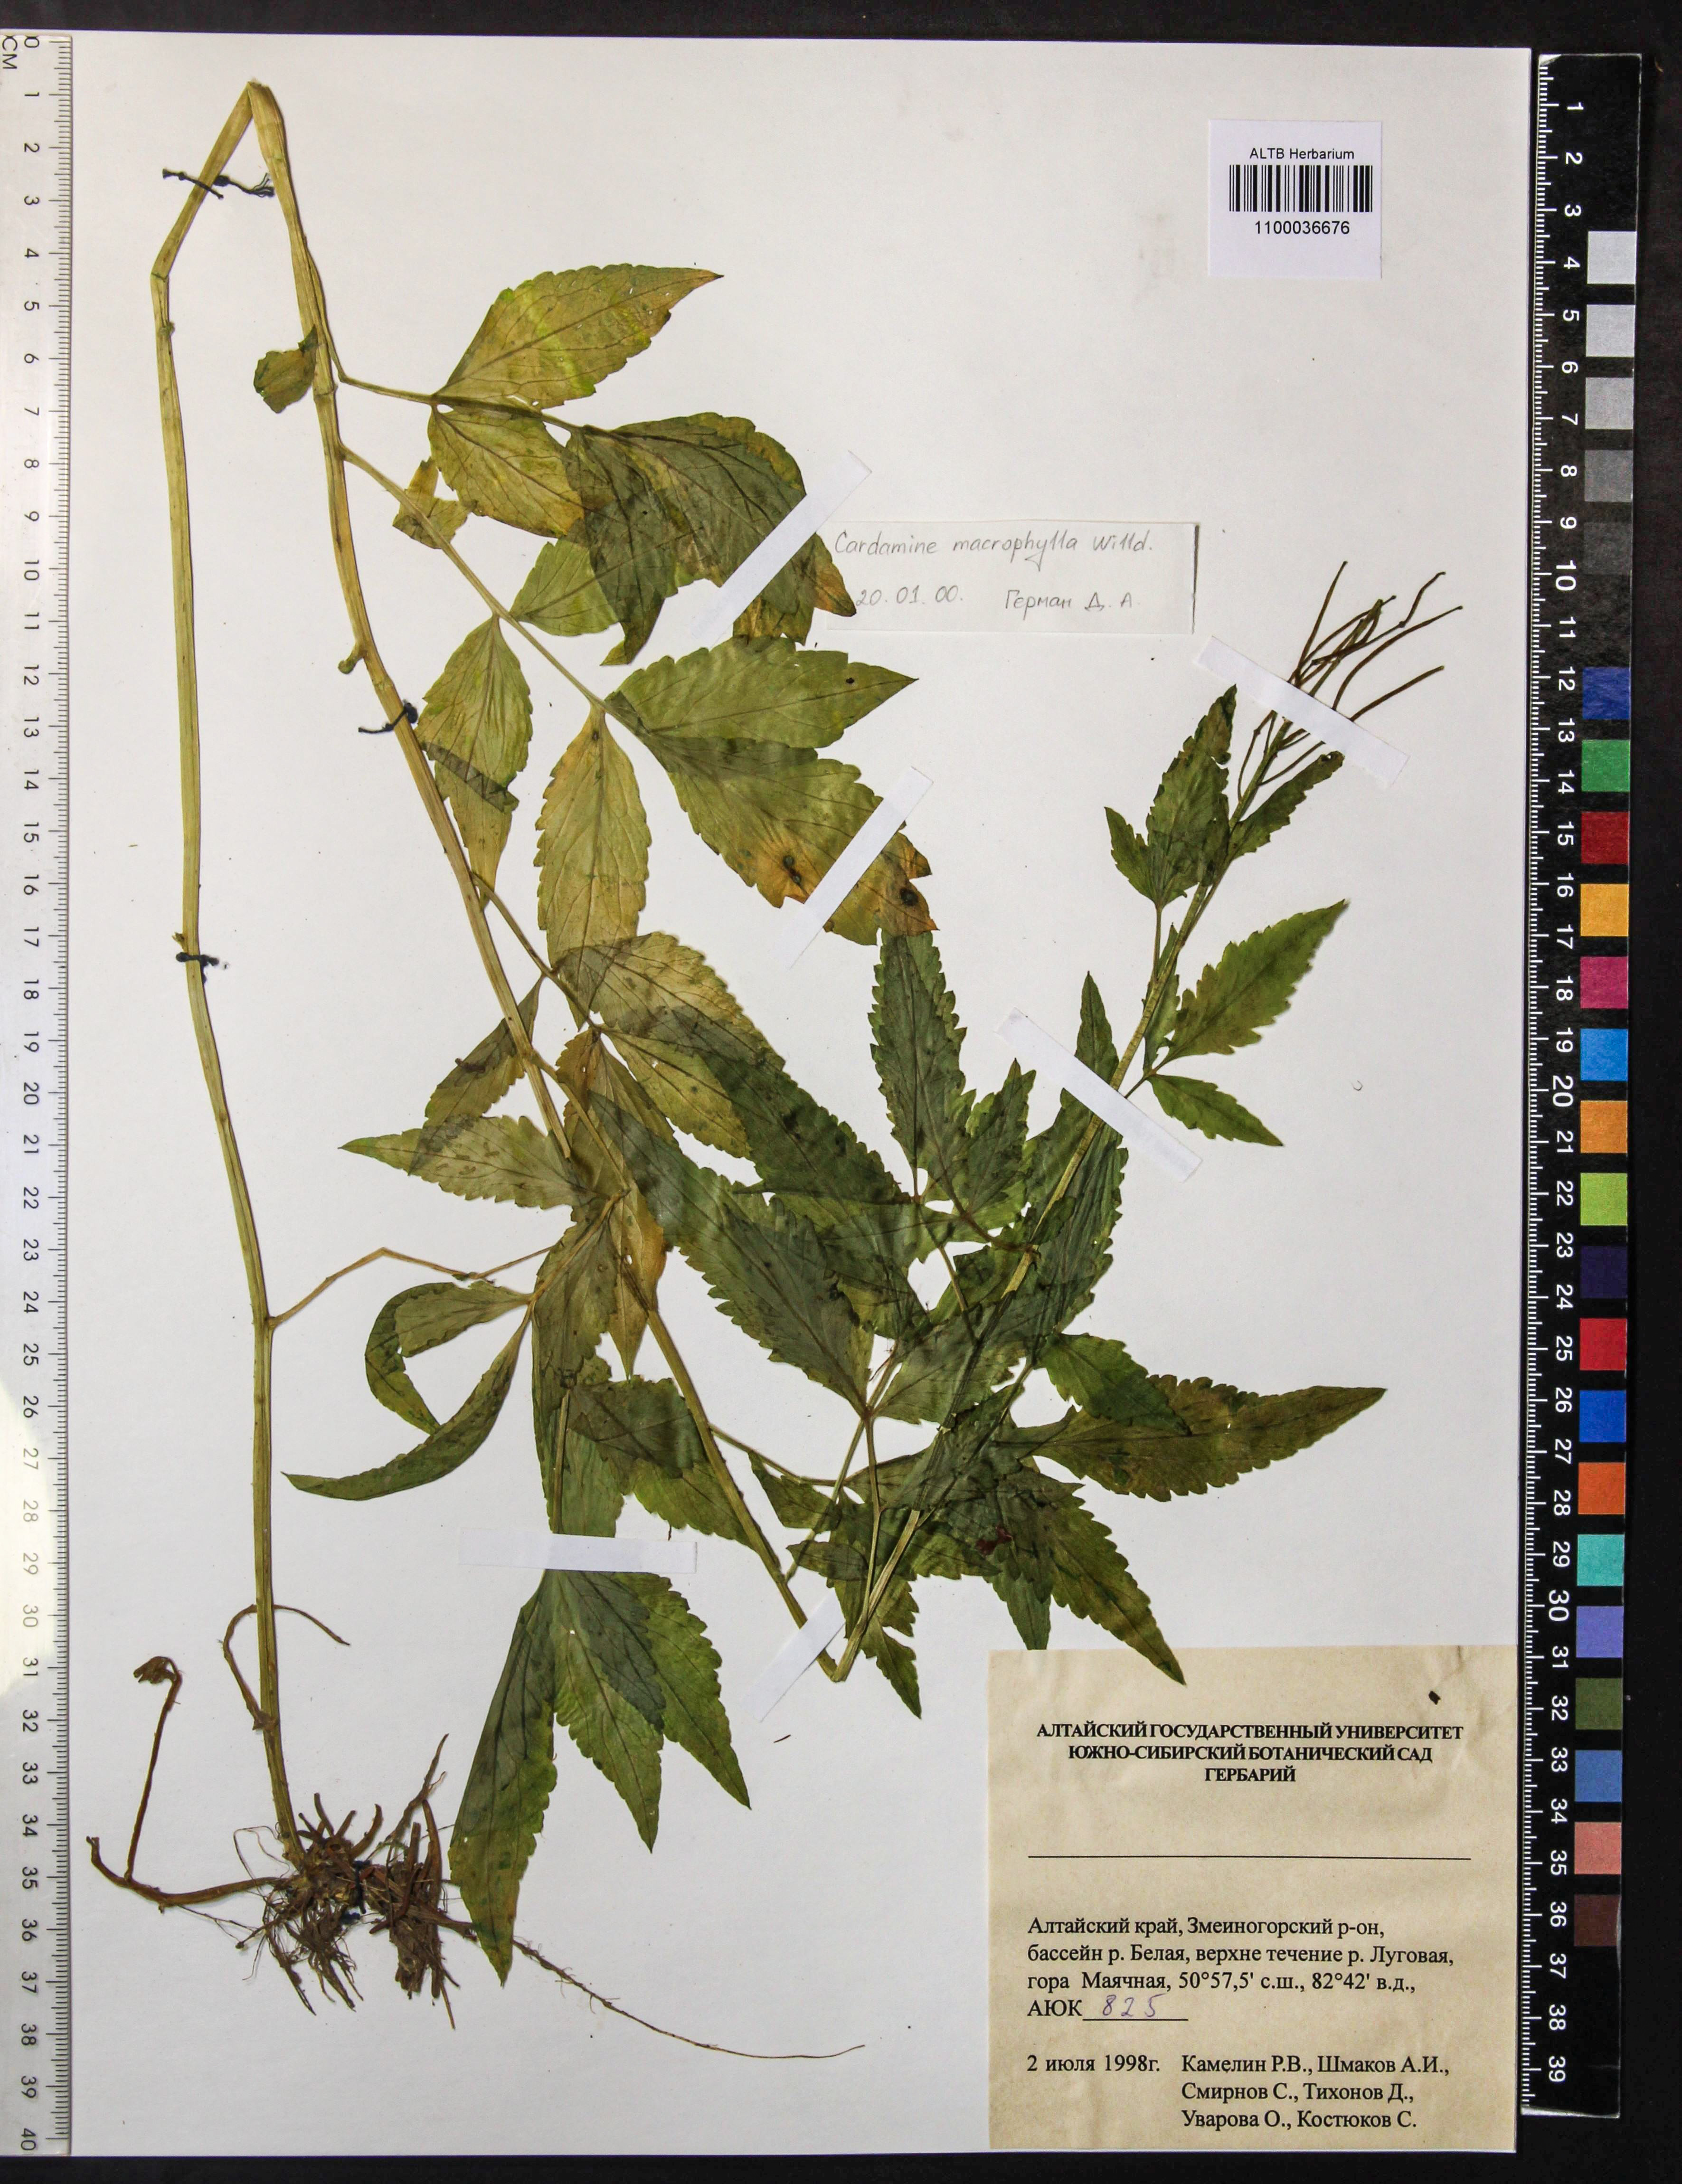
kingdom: Plantae
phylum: Tracheophyta
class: Magnoliopsida
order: Brassicales
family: Brassicaceae
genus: Cardamine
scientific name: Cardamine macrophylla
